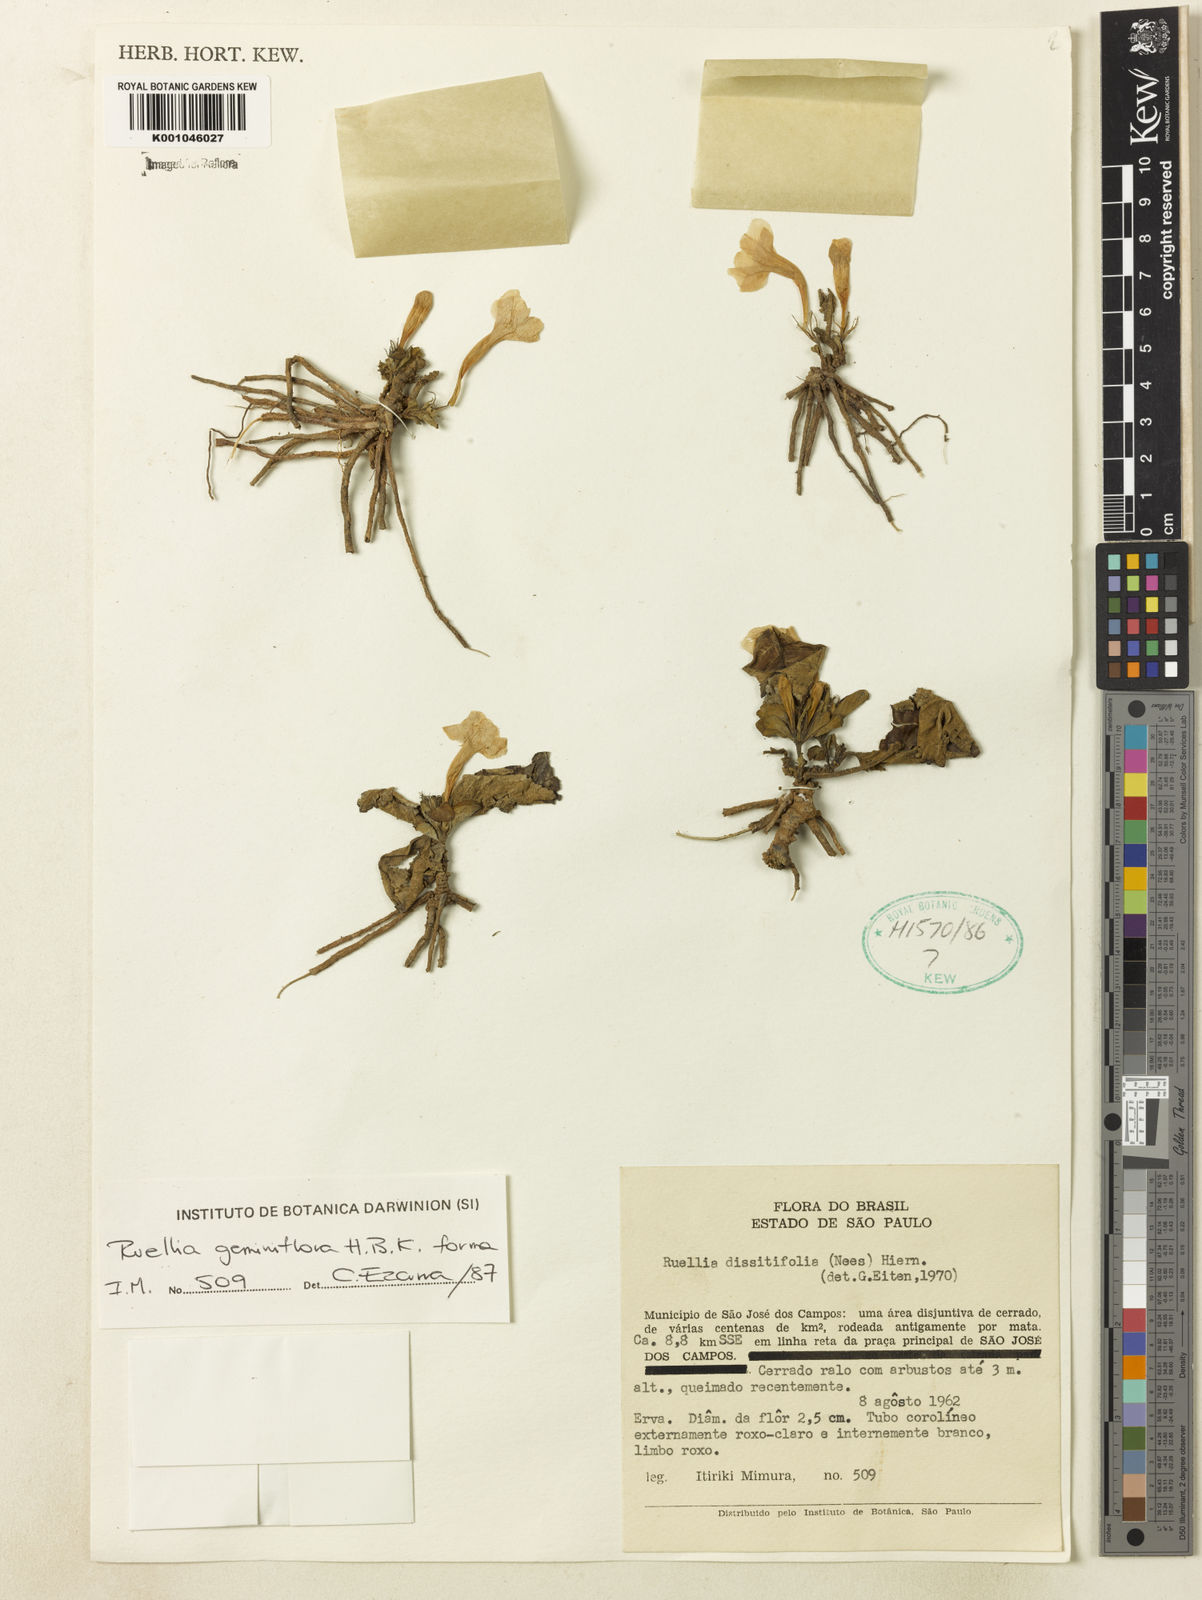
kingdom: Plantae
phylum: Tracheophyta
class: Magnoliopsida
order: Lamiales
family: Acanthaceae
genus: Ruellia
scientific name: Ruellia geminiflora
